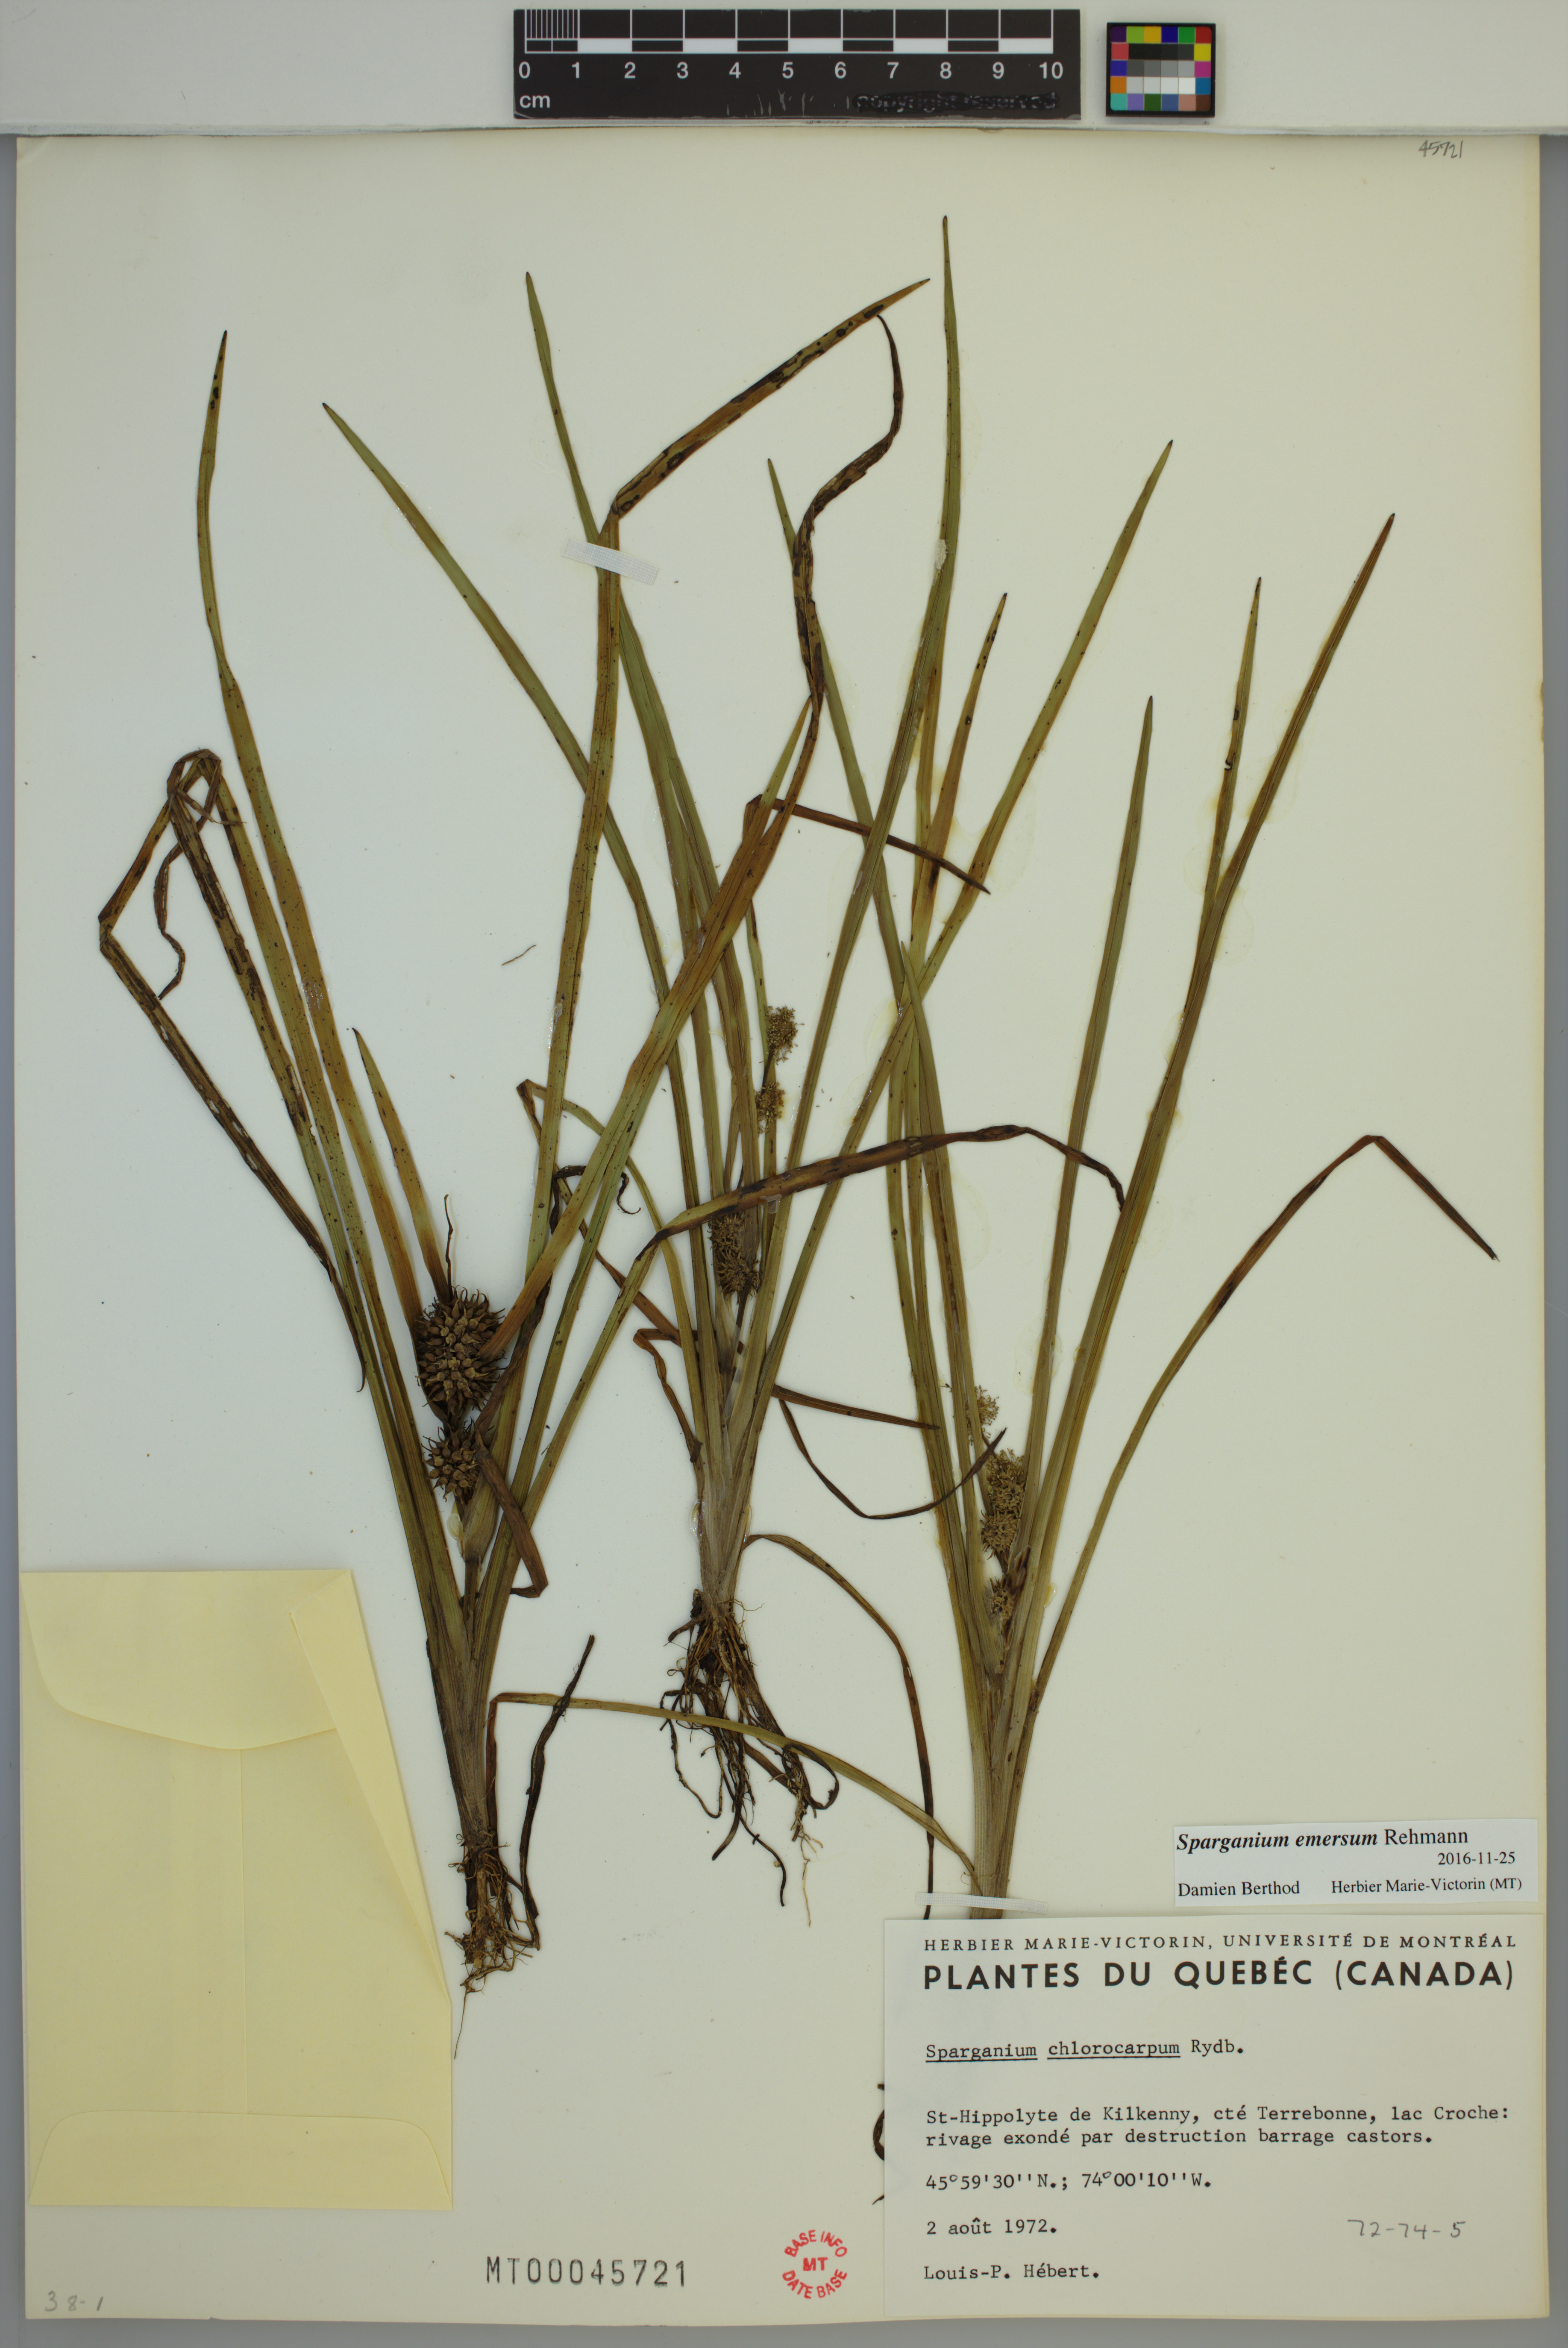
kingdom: Plantae
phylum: Tracheophyta
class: Liliopsida
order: Poales
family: Typhaceae
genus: Sparganium
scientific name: Sparganium emersum
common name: Unbranched bur-reed
